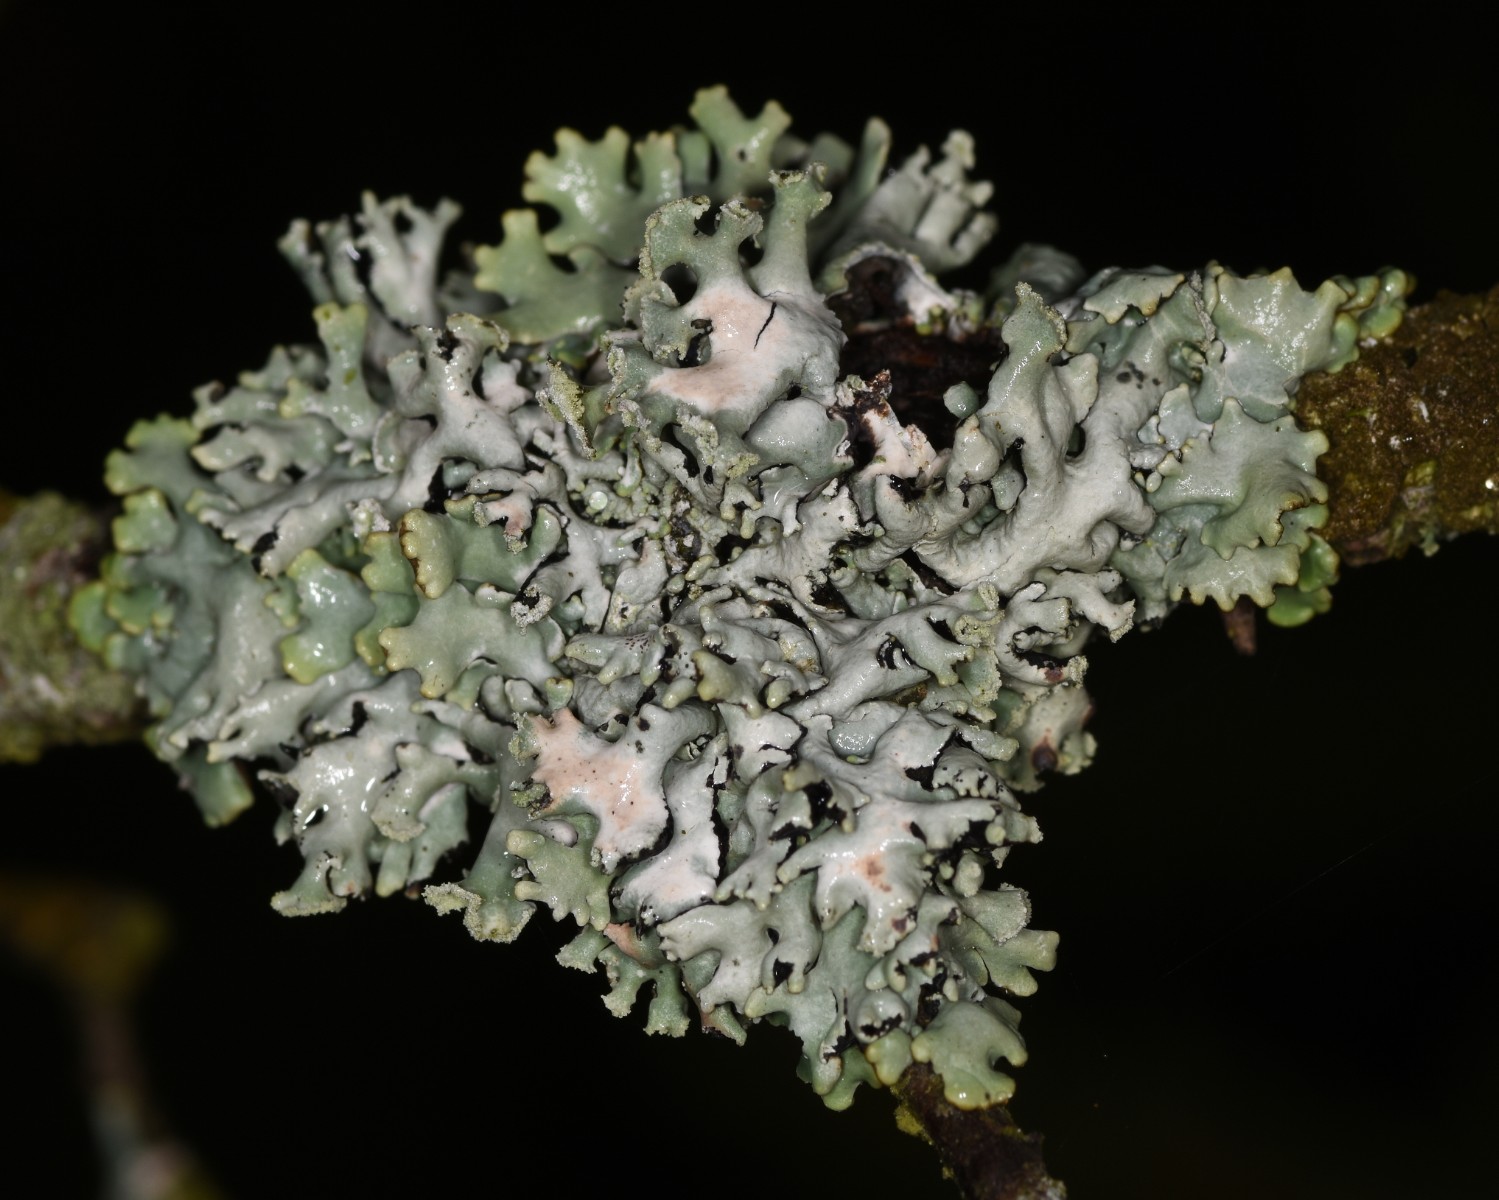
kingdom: Fungi
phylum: Ascomycota
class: Lecanoromycetes
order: Lecanorales
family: Parmeliaceae
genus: Hypogymnia
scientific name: Hypogymnia physodes
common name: almindelig kvistlav
